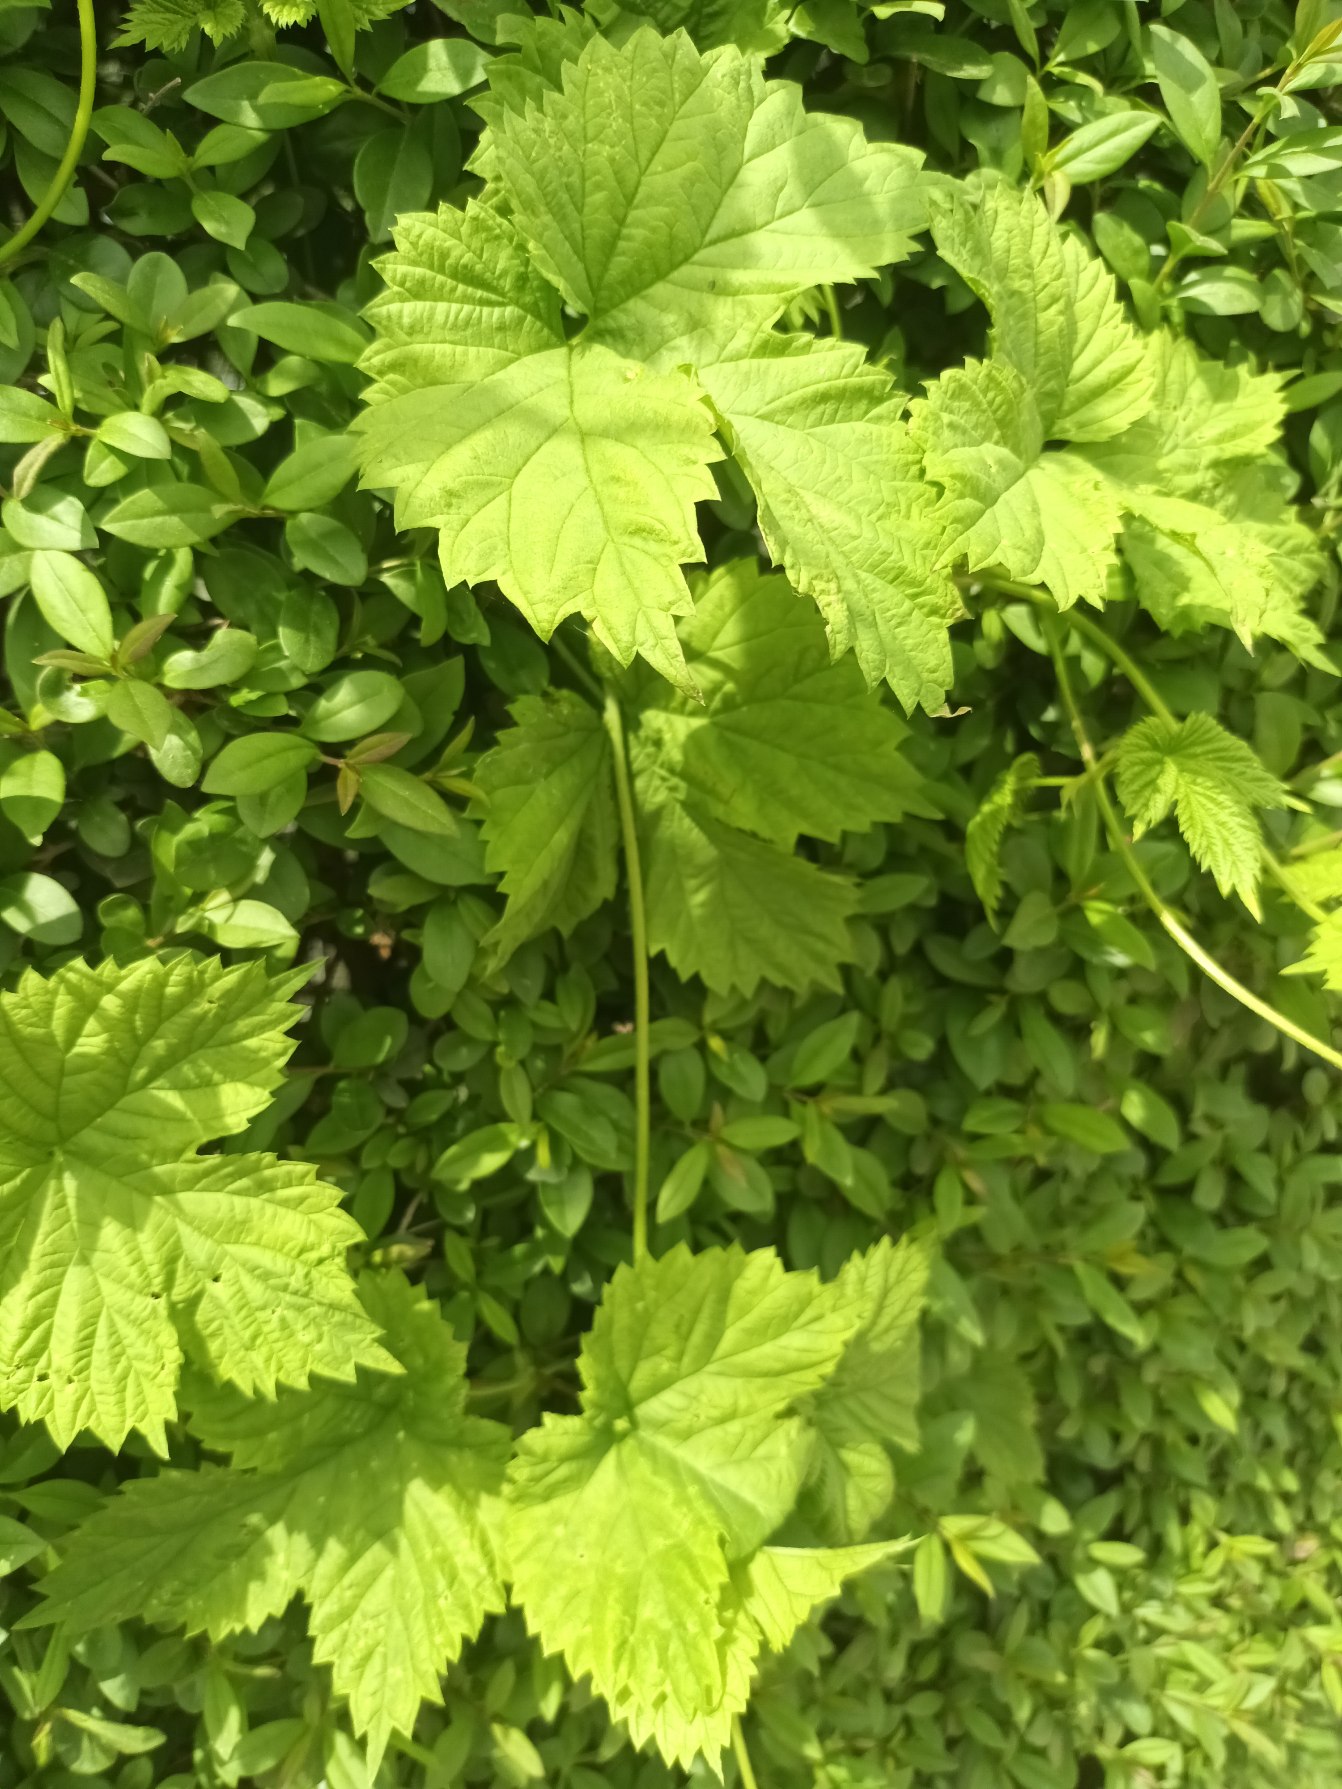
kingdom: Plantae
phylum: Tracheophyta
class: Magnoliopsida
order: Rosales
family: Cannabaceae
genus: Humulus
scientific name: Humulus lupulus
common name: Humle
